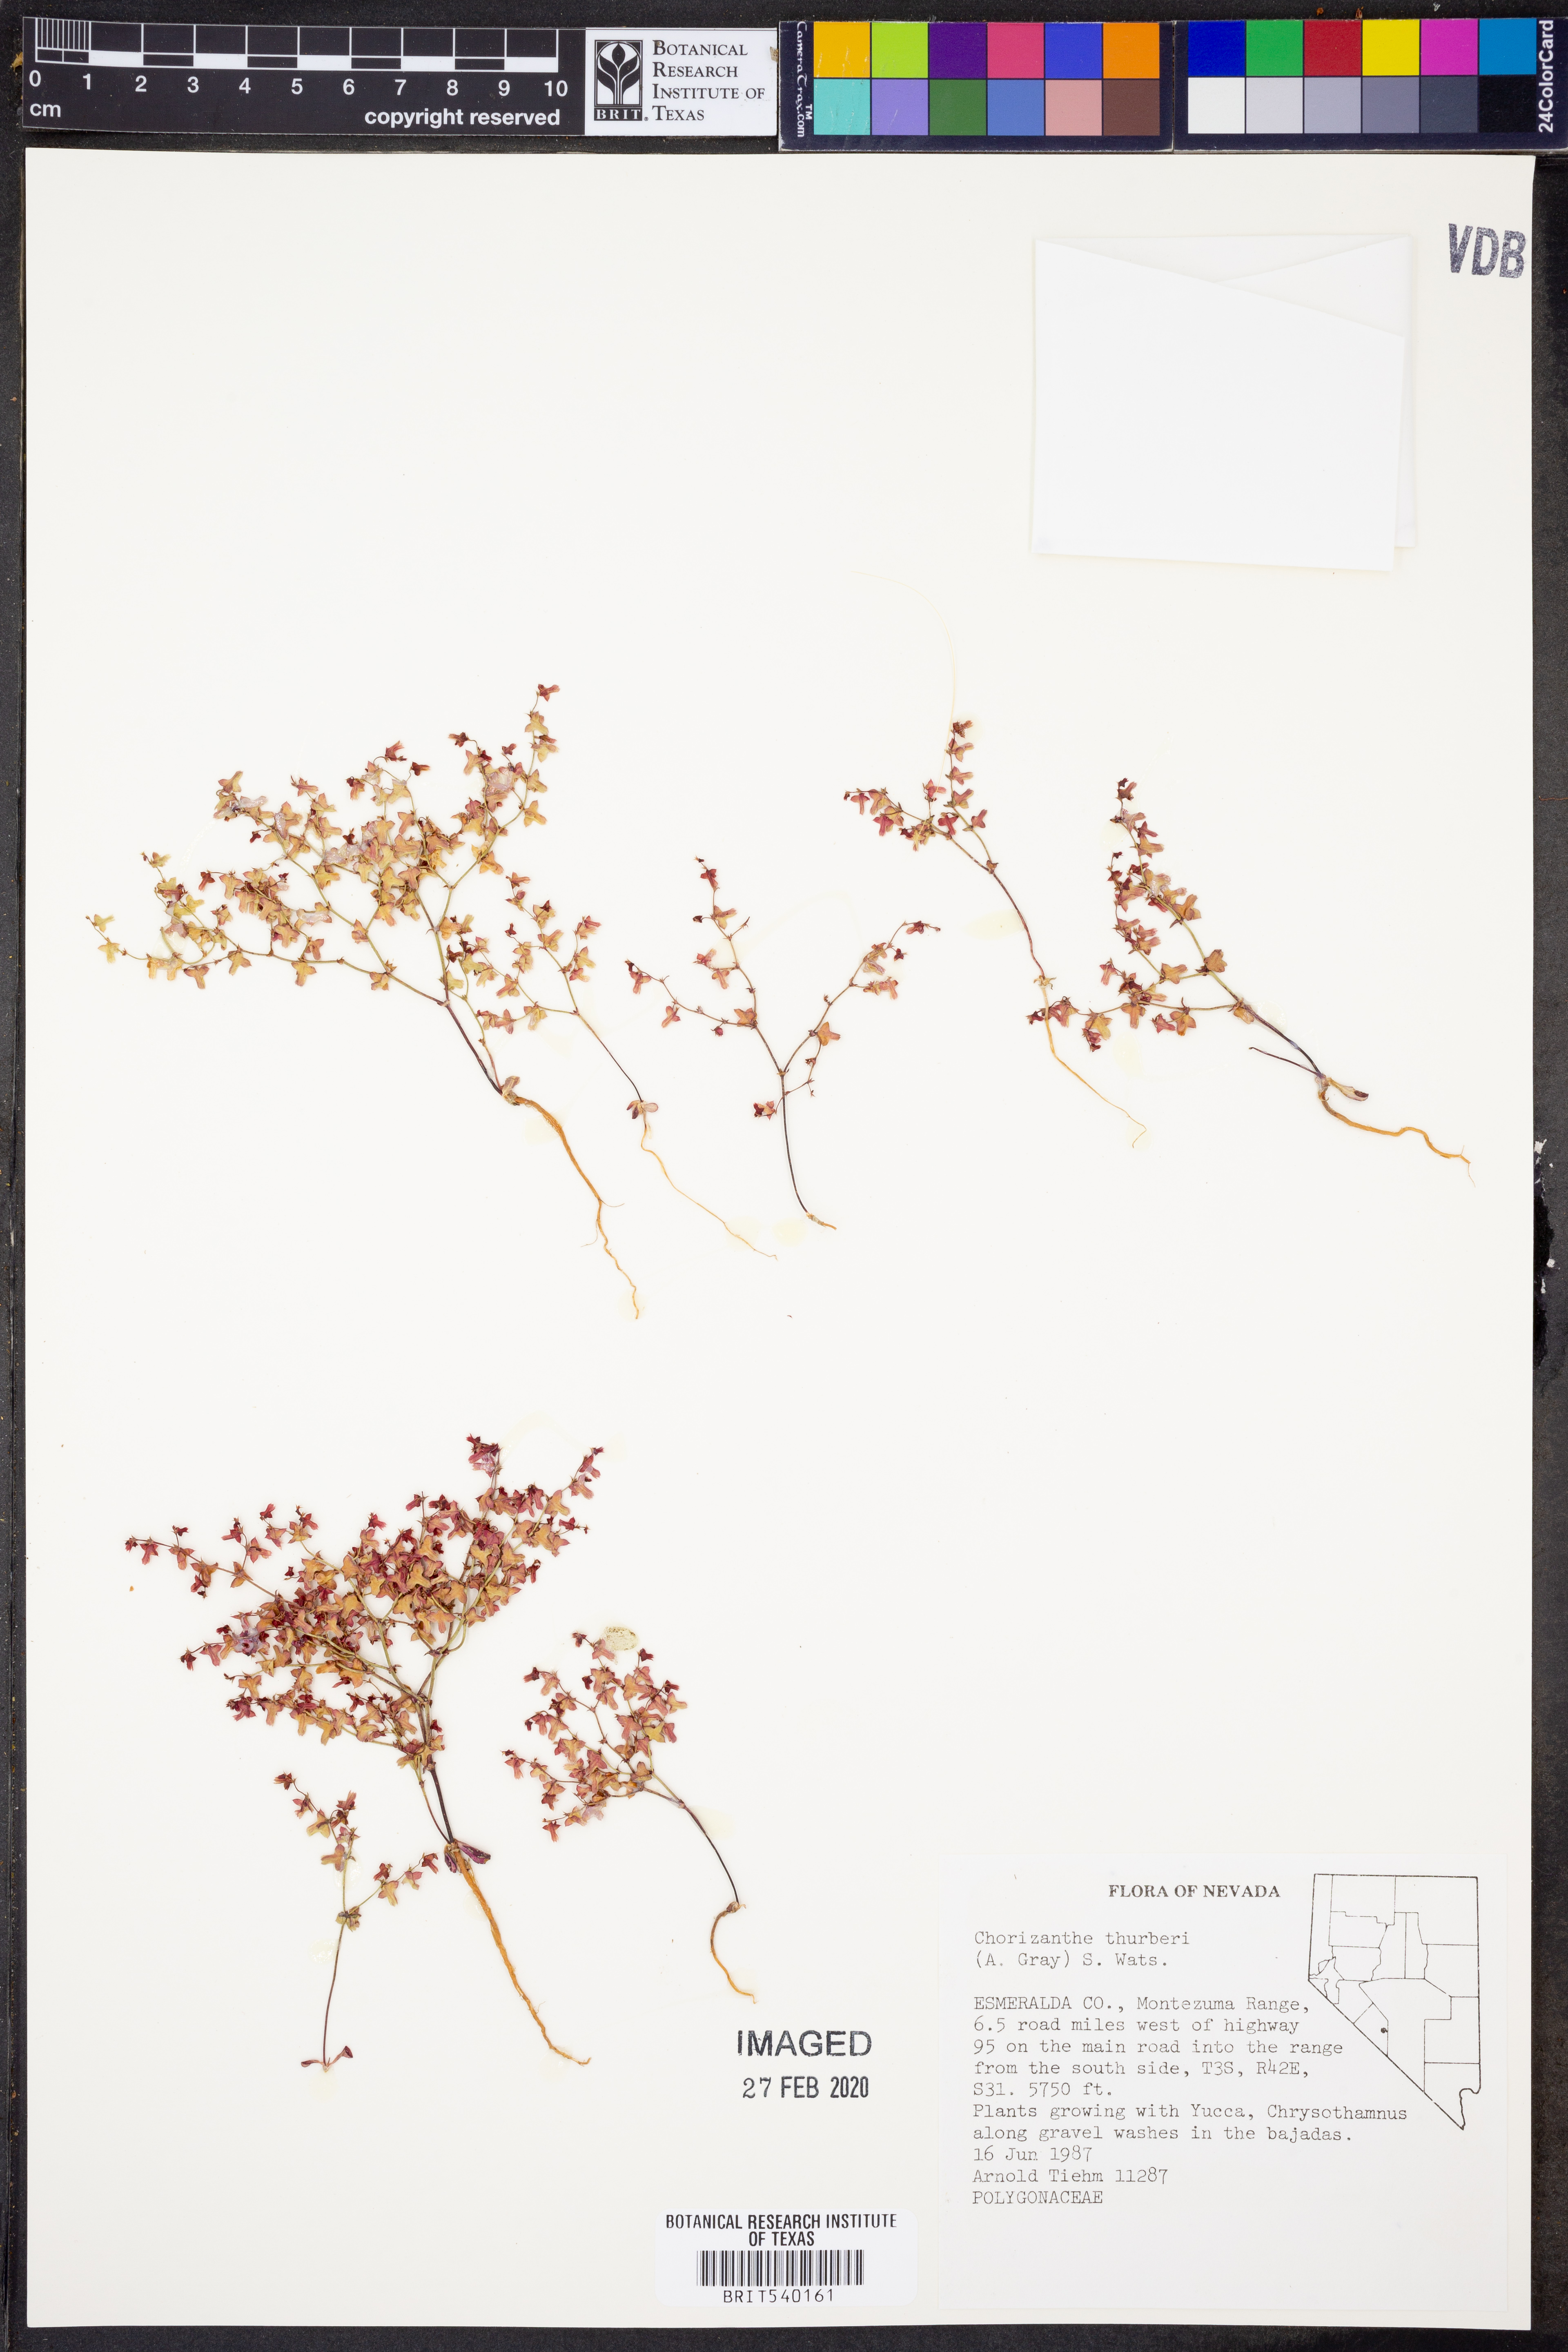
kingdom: Plantae
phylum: Tracheophyta
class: Magnoliopsida
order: Caryophyllales
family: Polygonaceae
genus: Centrostegia
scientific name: Centrostegia thurberi
